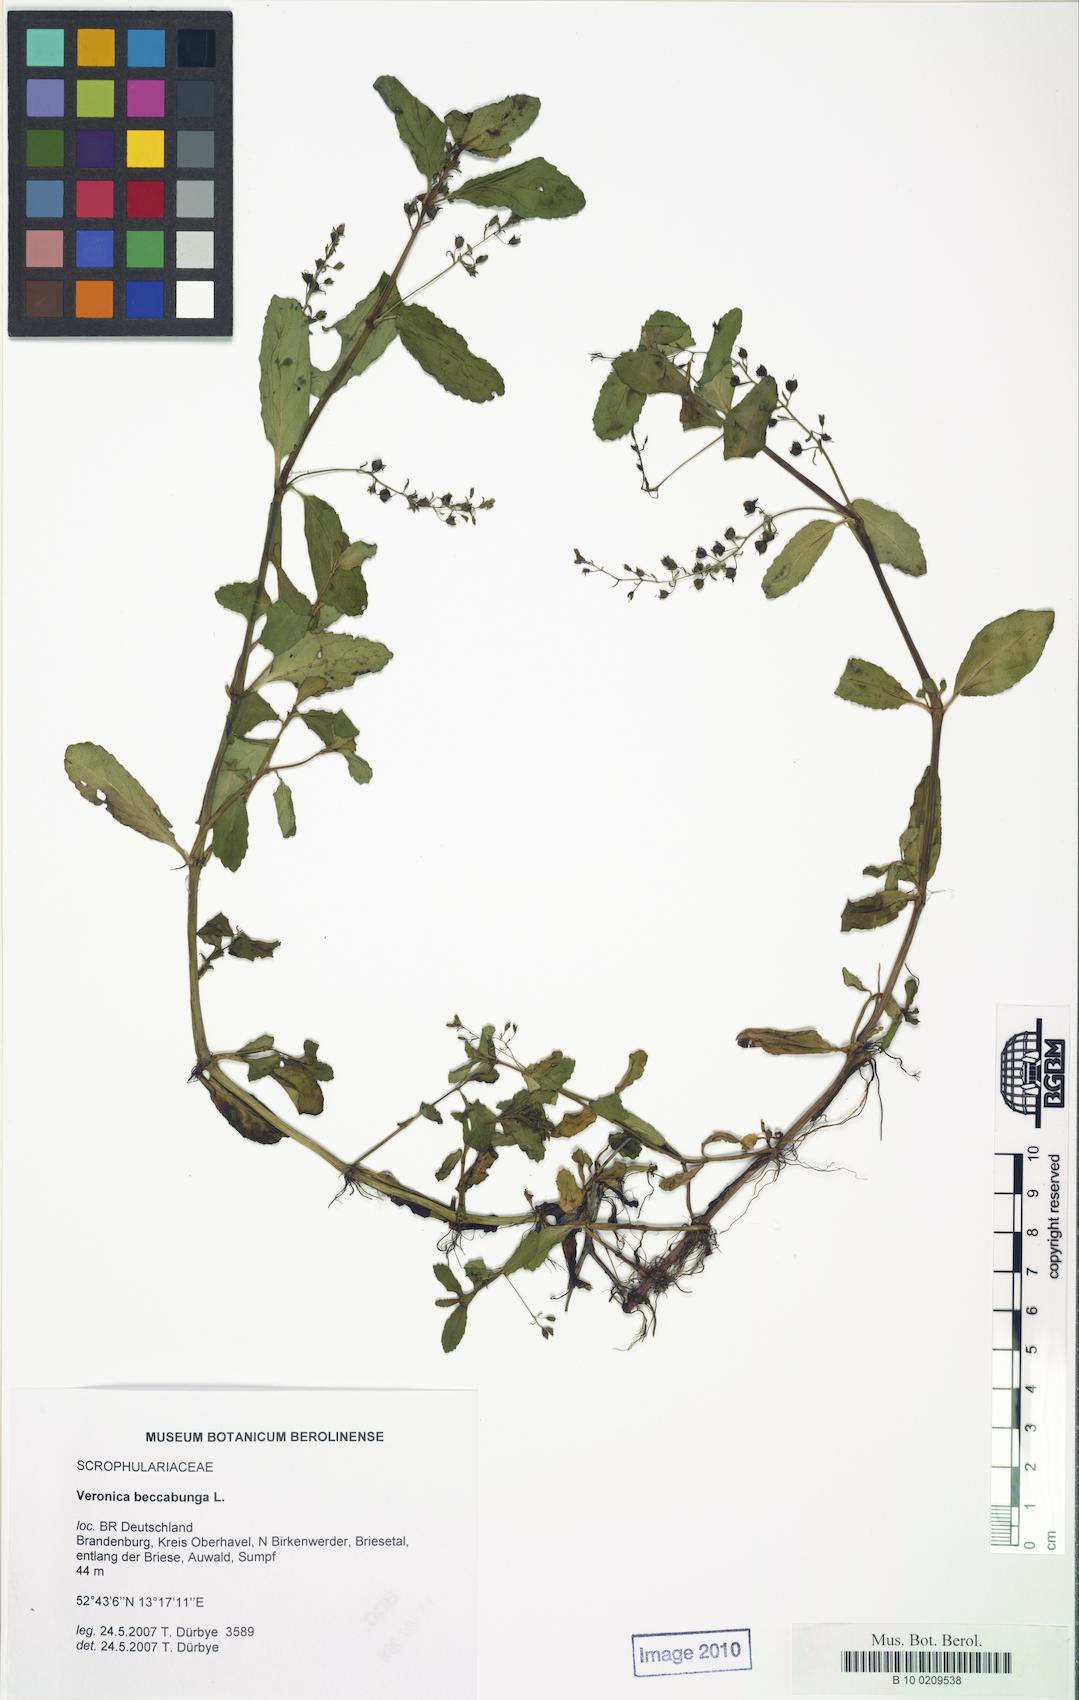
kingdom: Plantae
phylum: Tracheophyta
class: Magnoliopsida
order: Lamiales
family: Plantaginaceae
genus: Veronica
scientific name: Veronica beccabunga
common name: Brooklime
